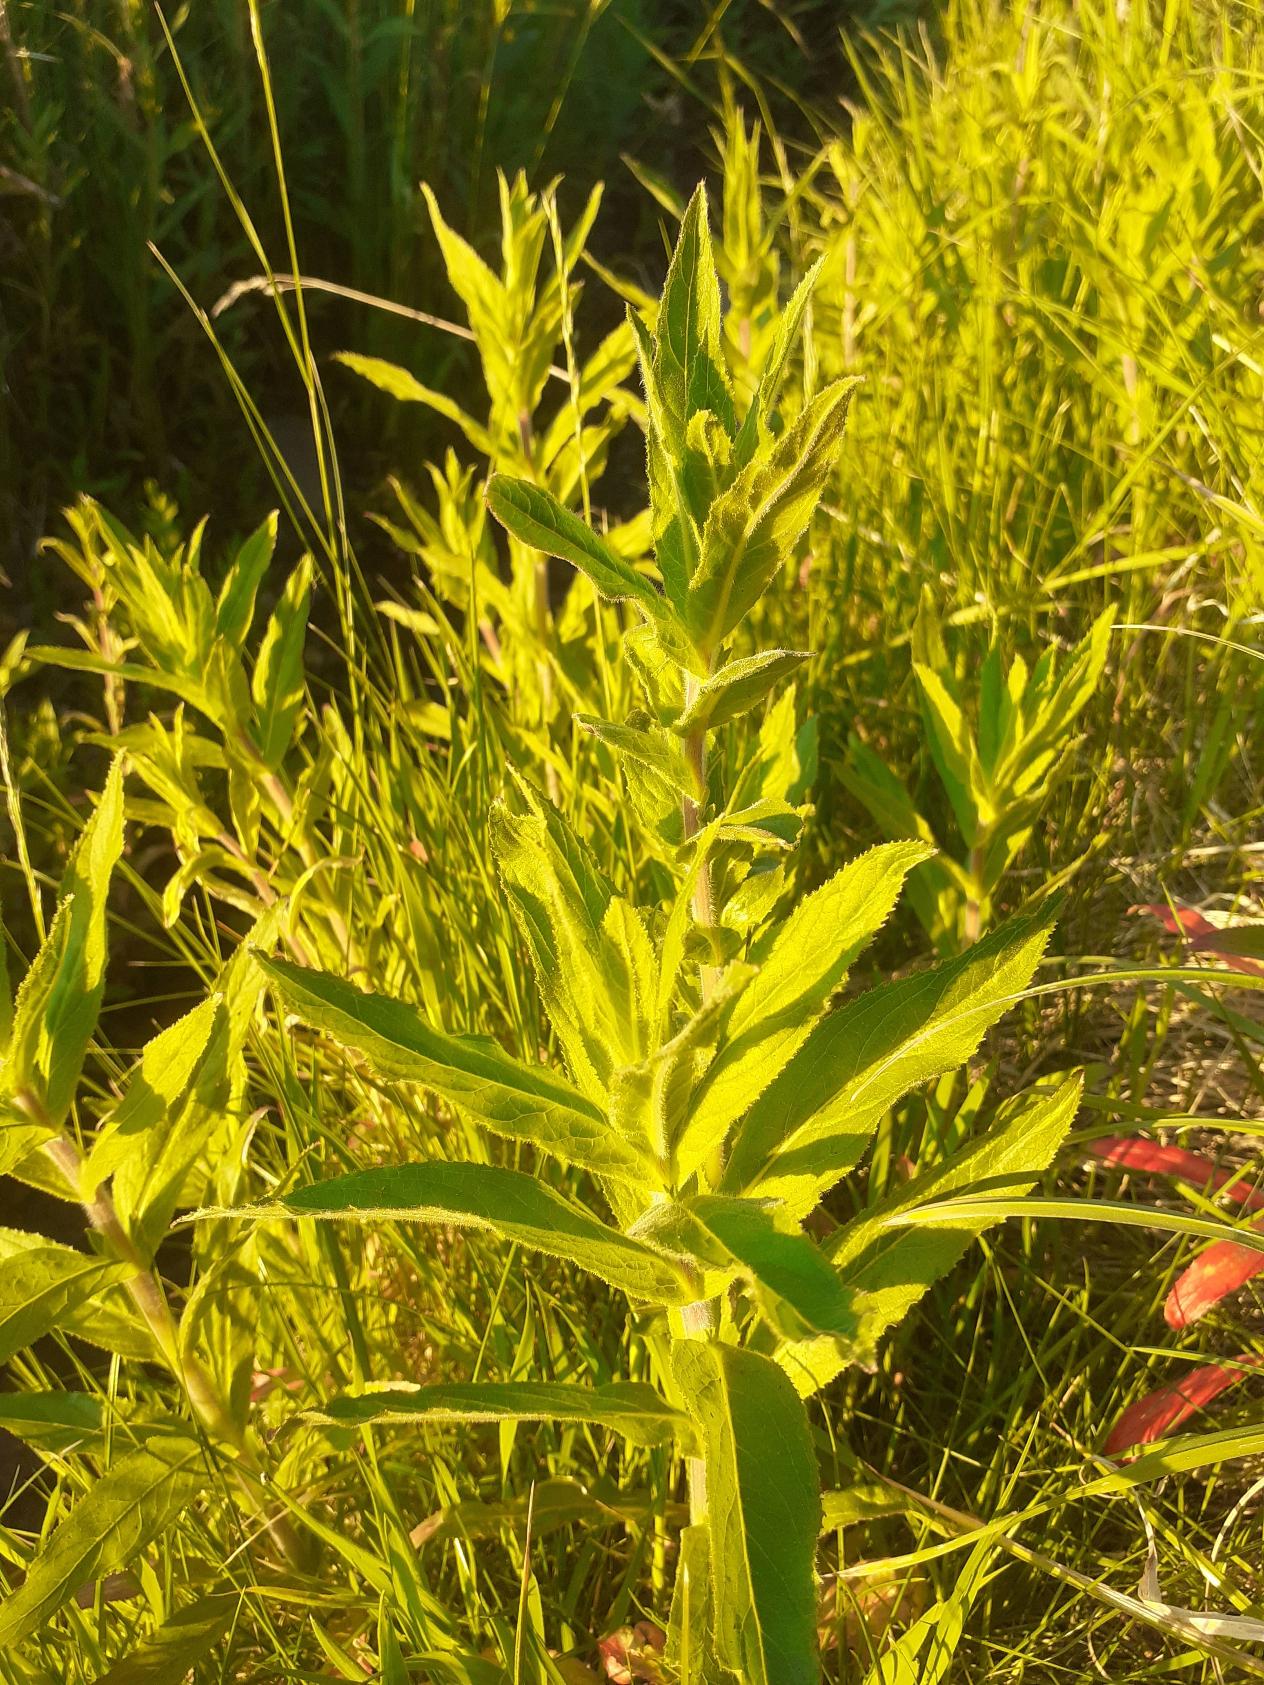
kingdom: Plantae
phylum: Tracheophyta
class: Magnoliopsida
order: Myrtales
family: Onagraceae
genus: Epilobium
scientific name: Epilobium hirsutum
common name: Lådden dueurt
